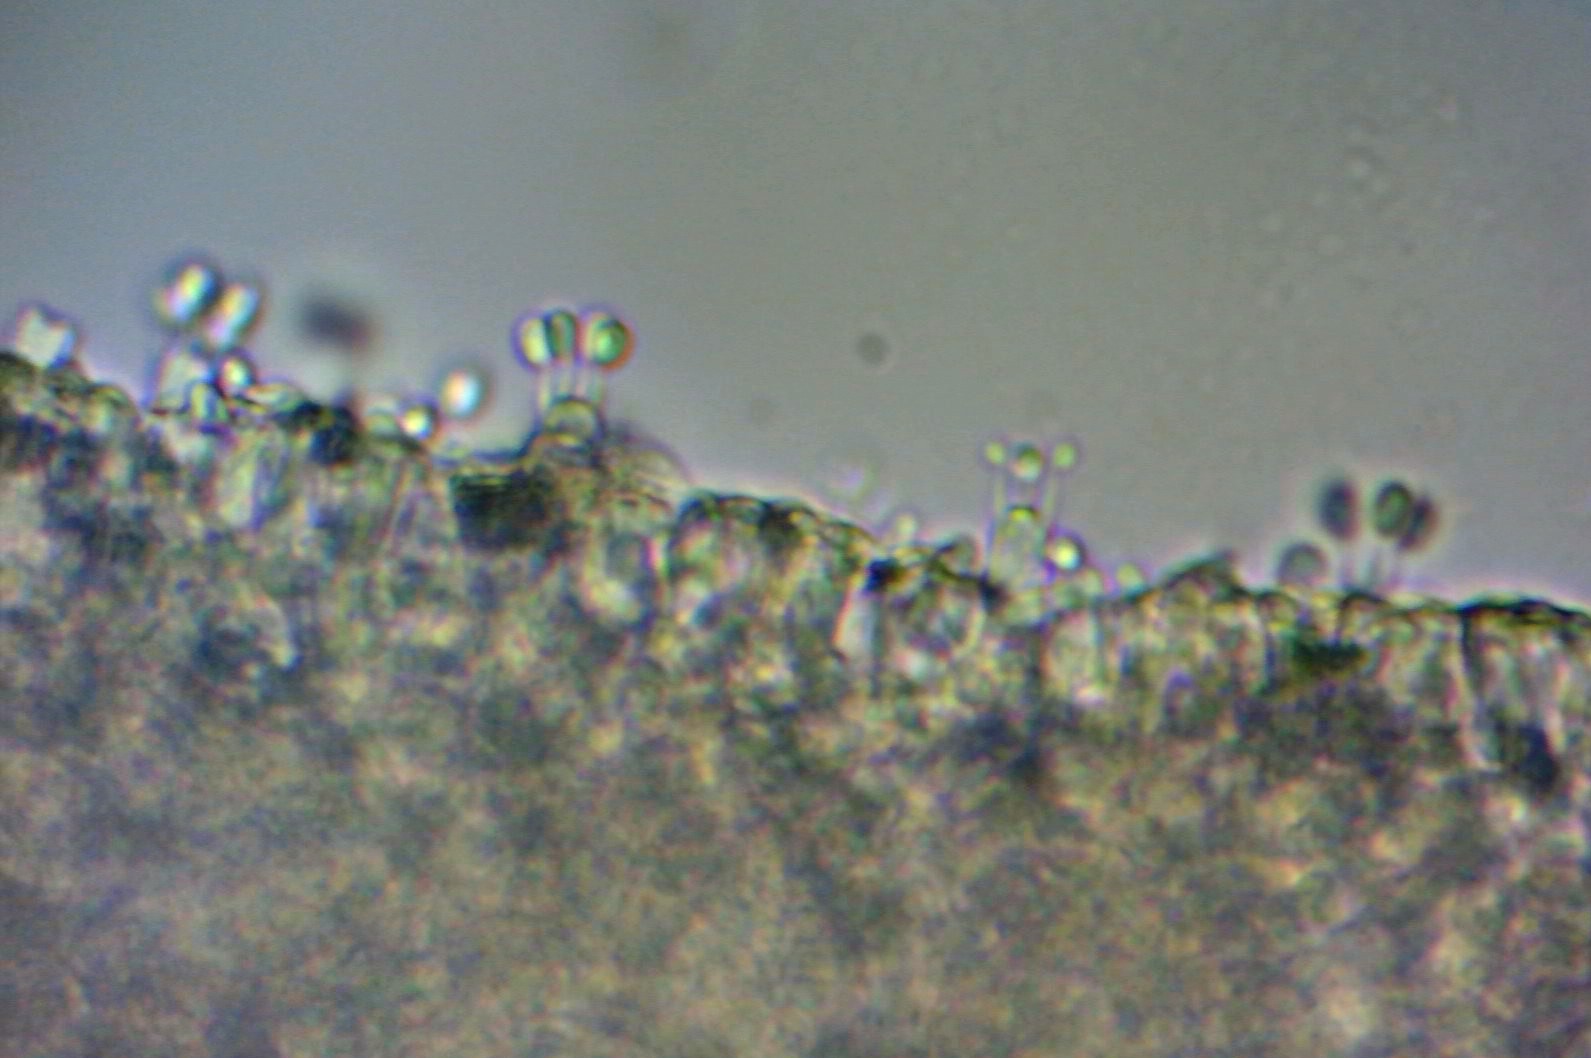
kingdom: Fungi
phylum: Basidiomycota
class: Agaricomycetes
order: Agaricales
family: Agaricaceae
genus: Cystodermella
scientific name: Cystodermella granulosa
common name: kliddet grynhat
